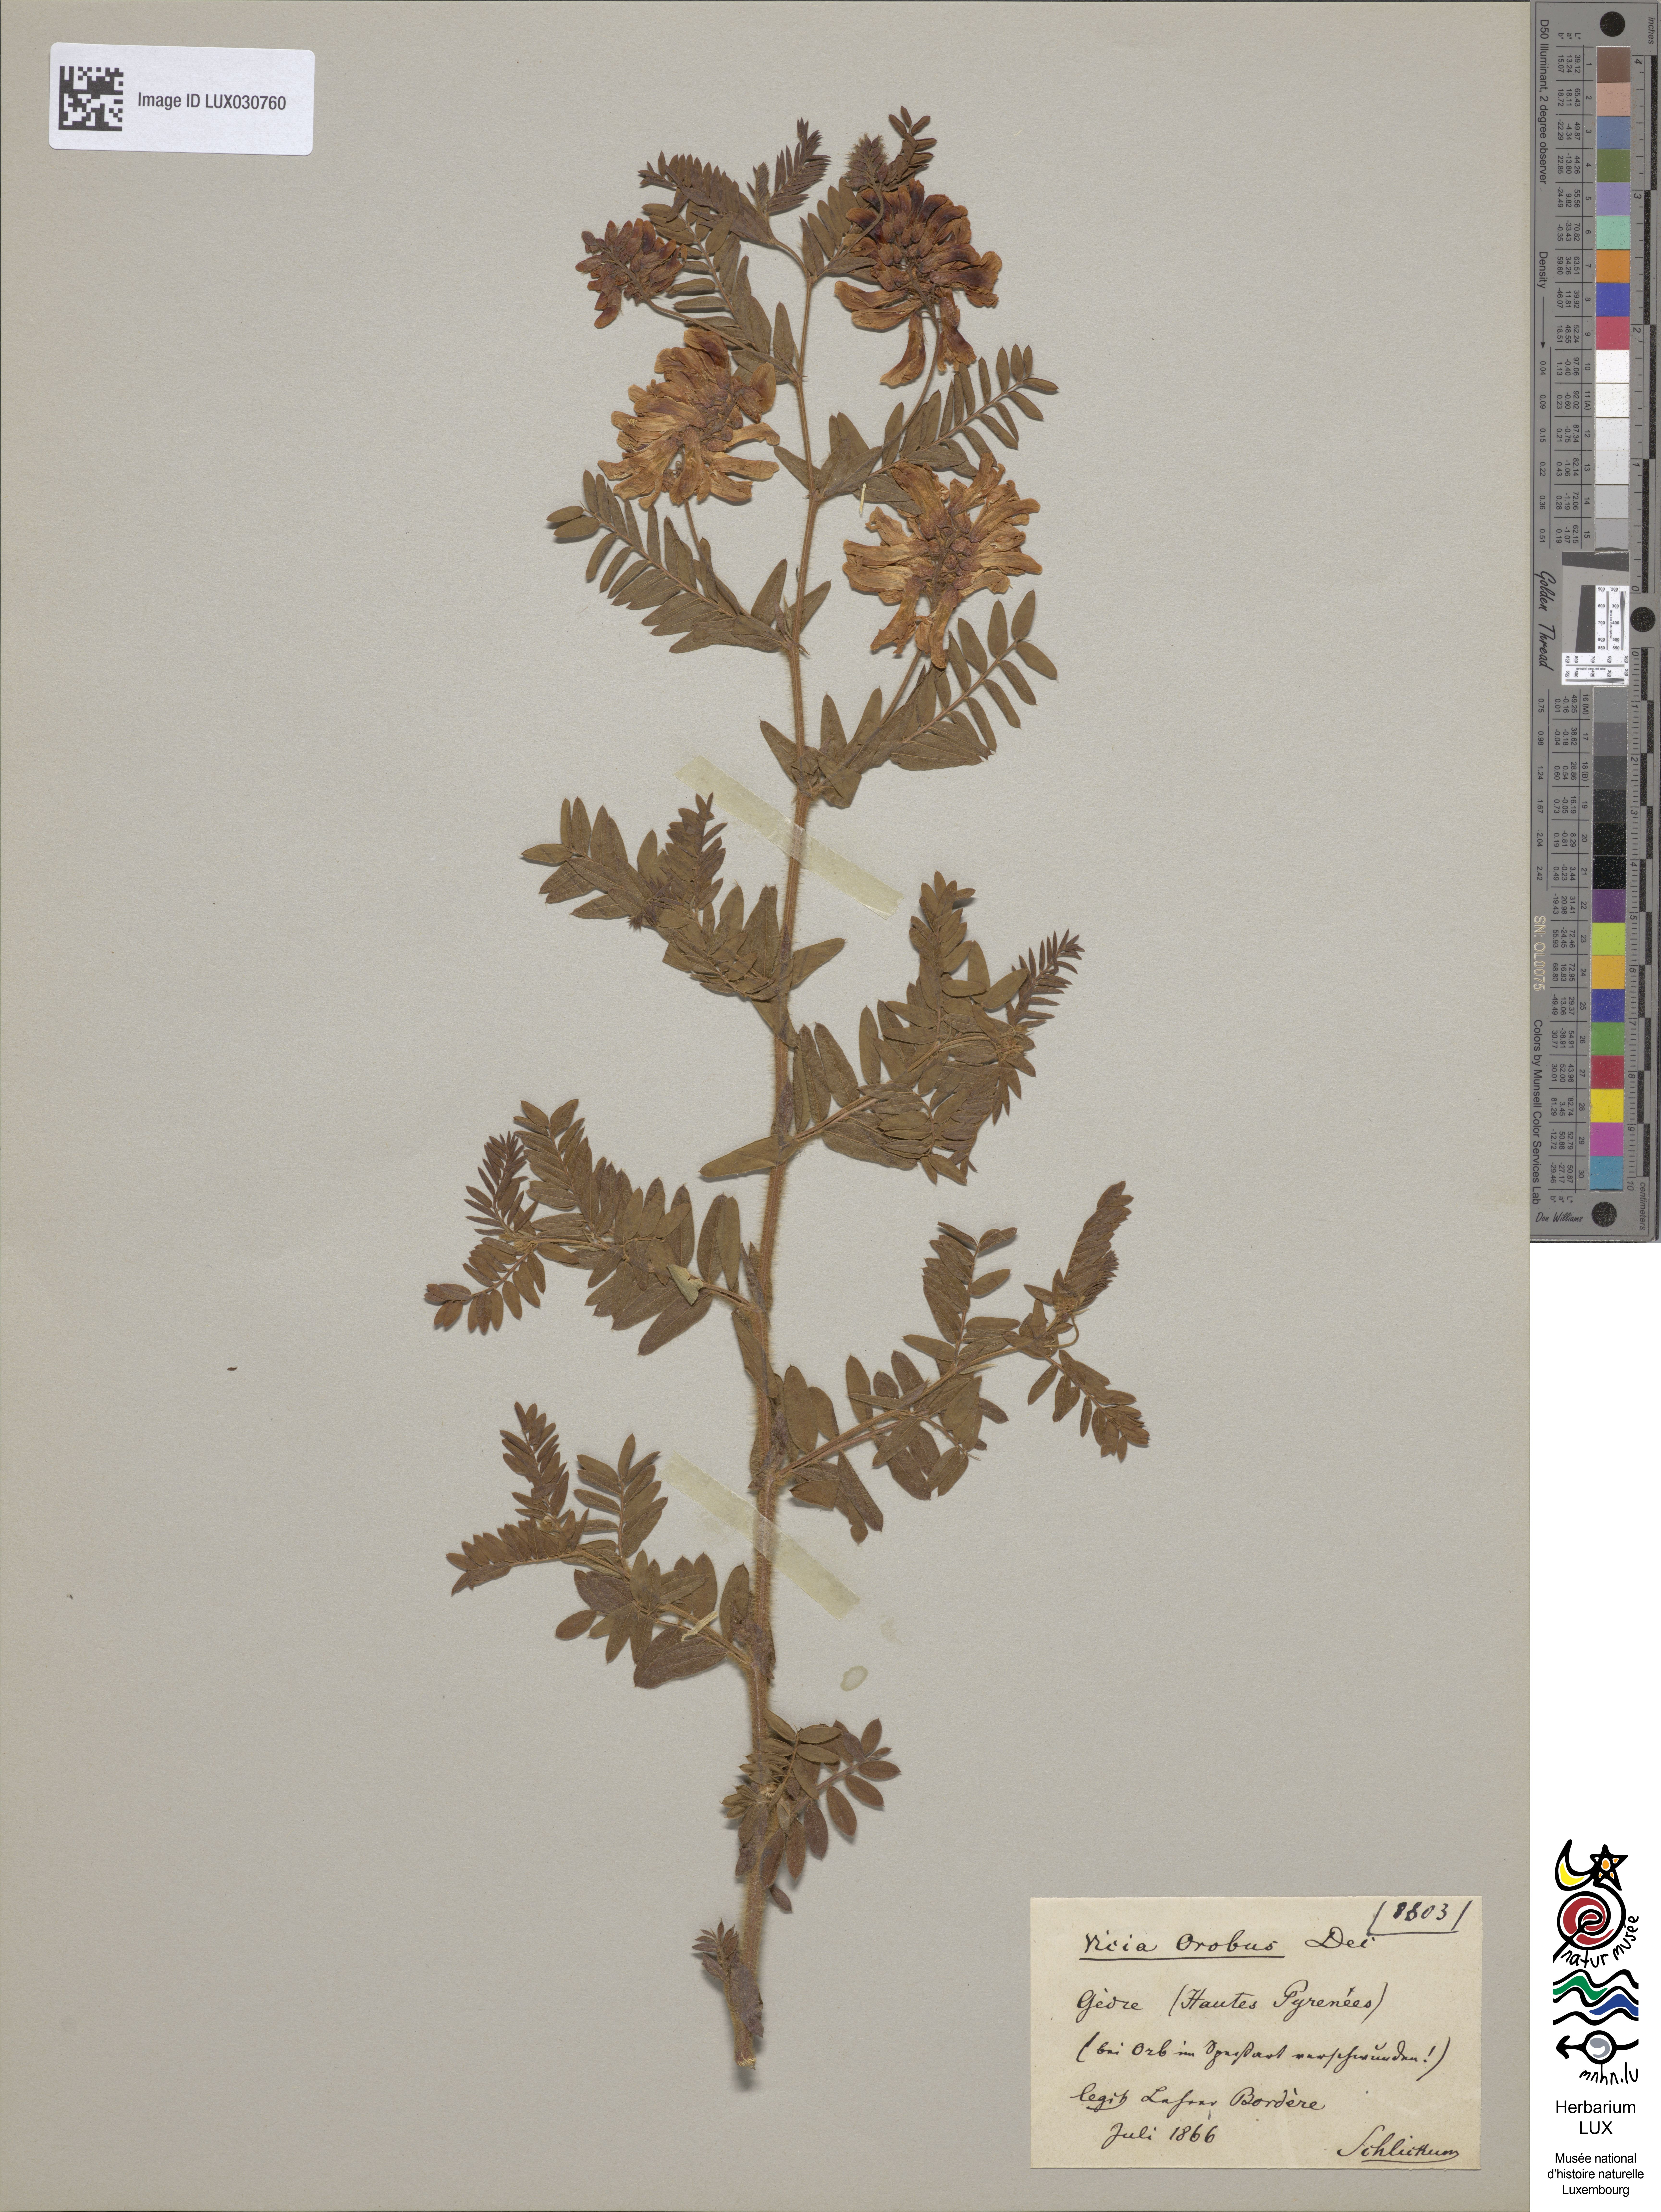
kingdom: Plantae
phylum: Tracheophyta
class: Magnoliopsida
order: Fabales
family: Fabaceae
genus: Vicia
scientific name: Vicia orobus
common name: Wood bitter-vetch
